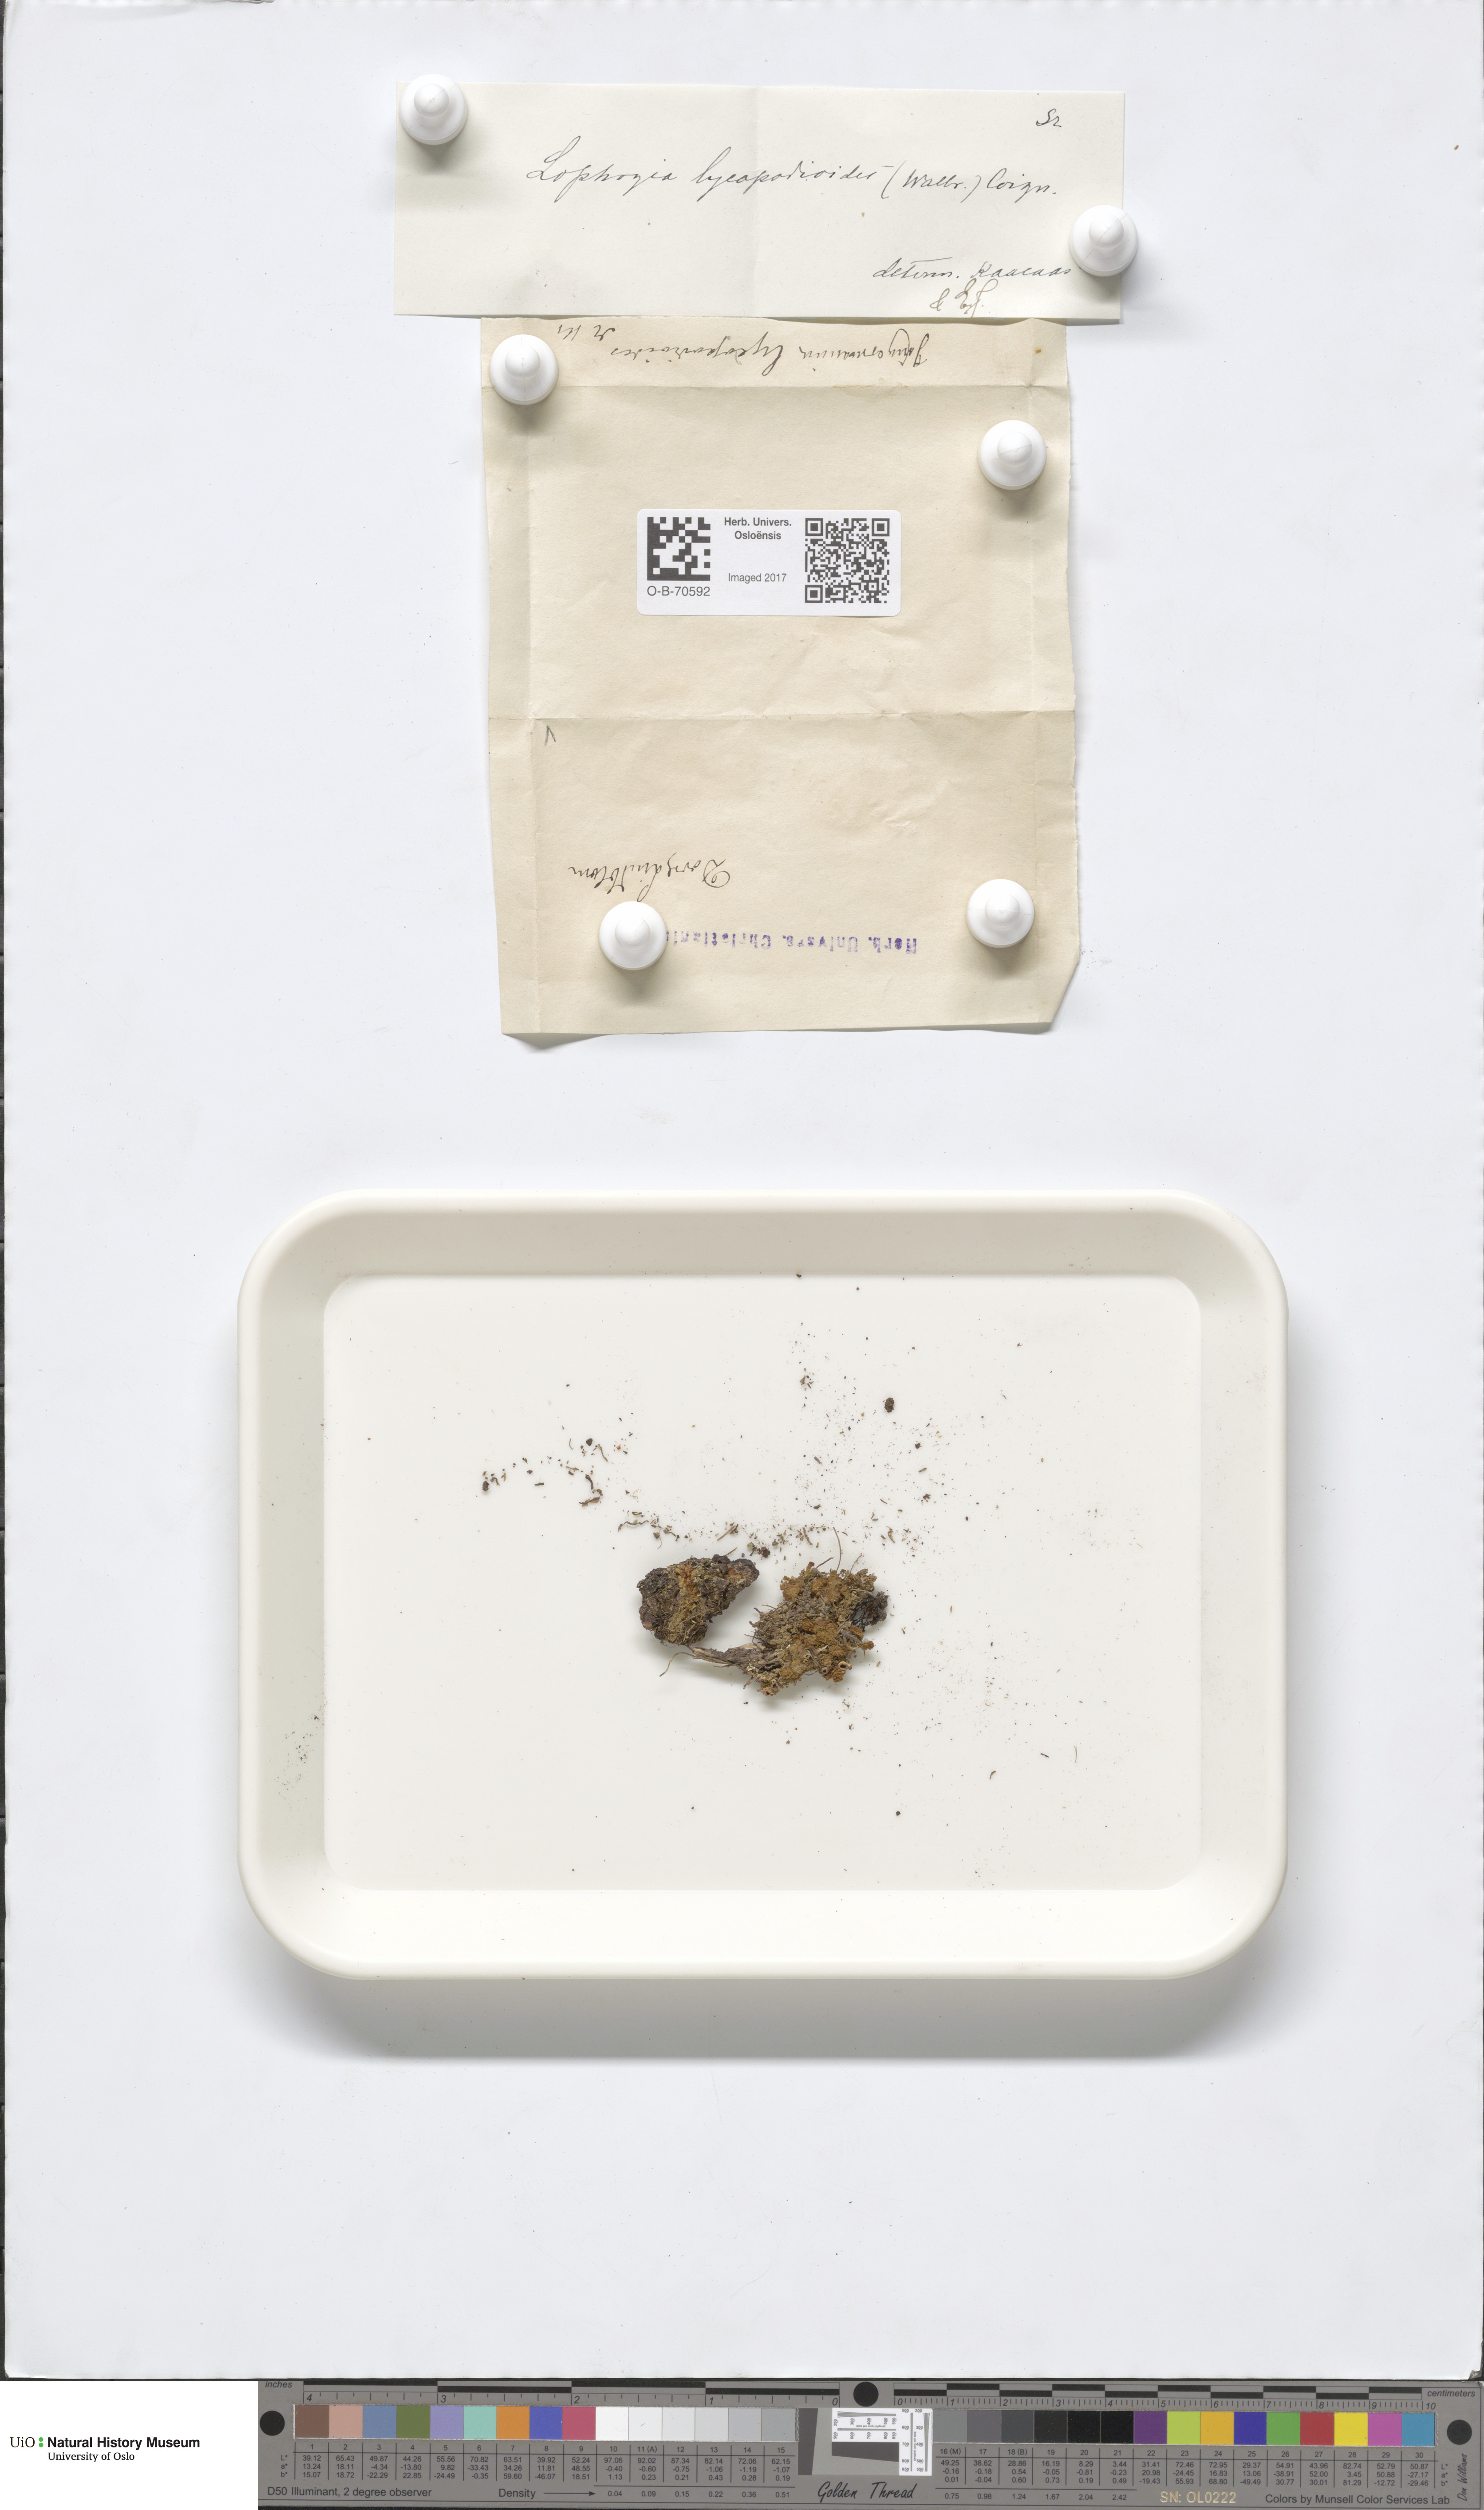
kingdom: Plantae
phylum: Marchantiophyta
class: Jungermanniopsida
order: Jungermanniales
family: Anastrophyllaceae
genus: Barbilophozia
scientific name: Barbilophozia lycopodioides
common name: Greater pawwort
